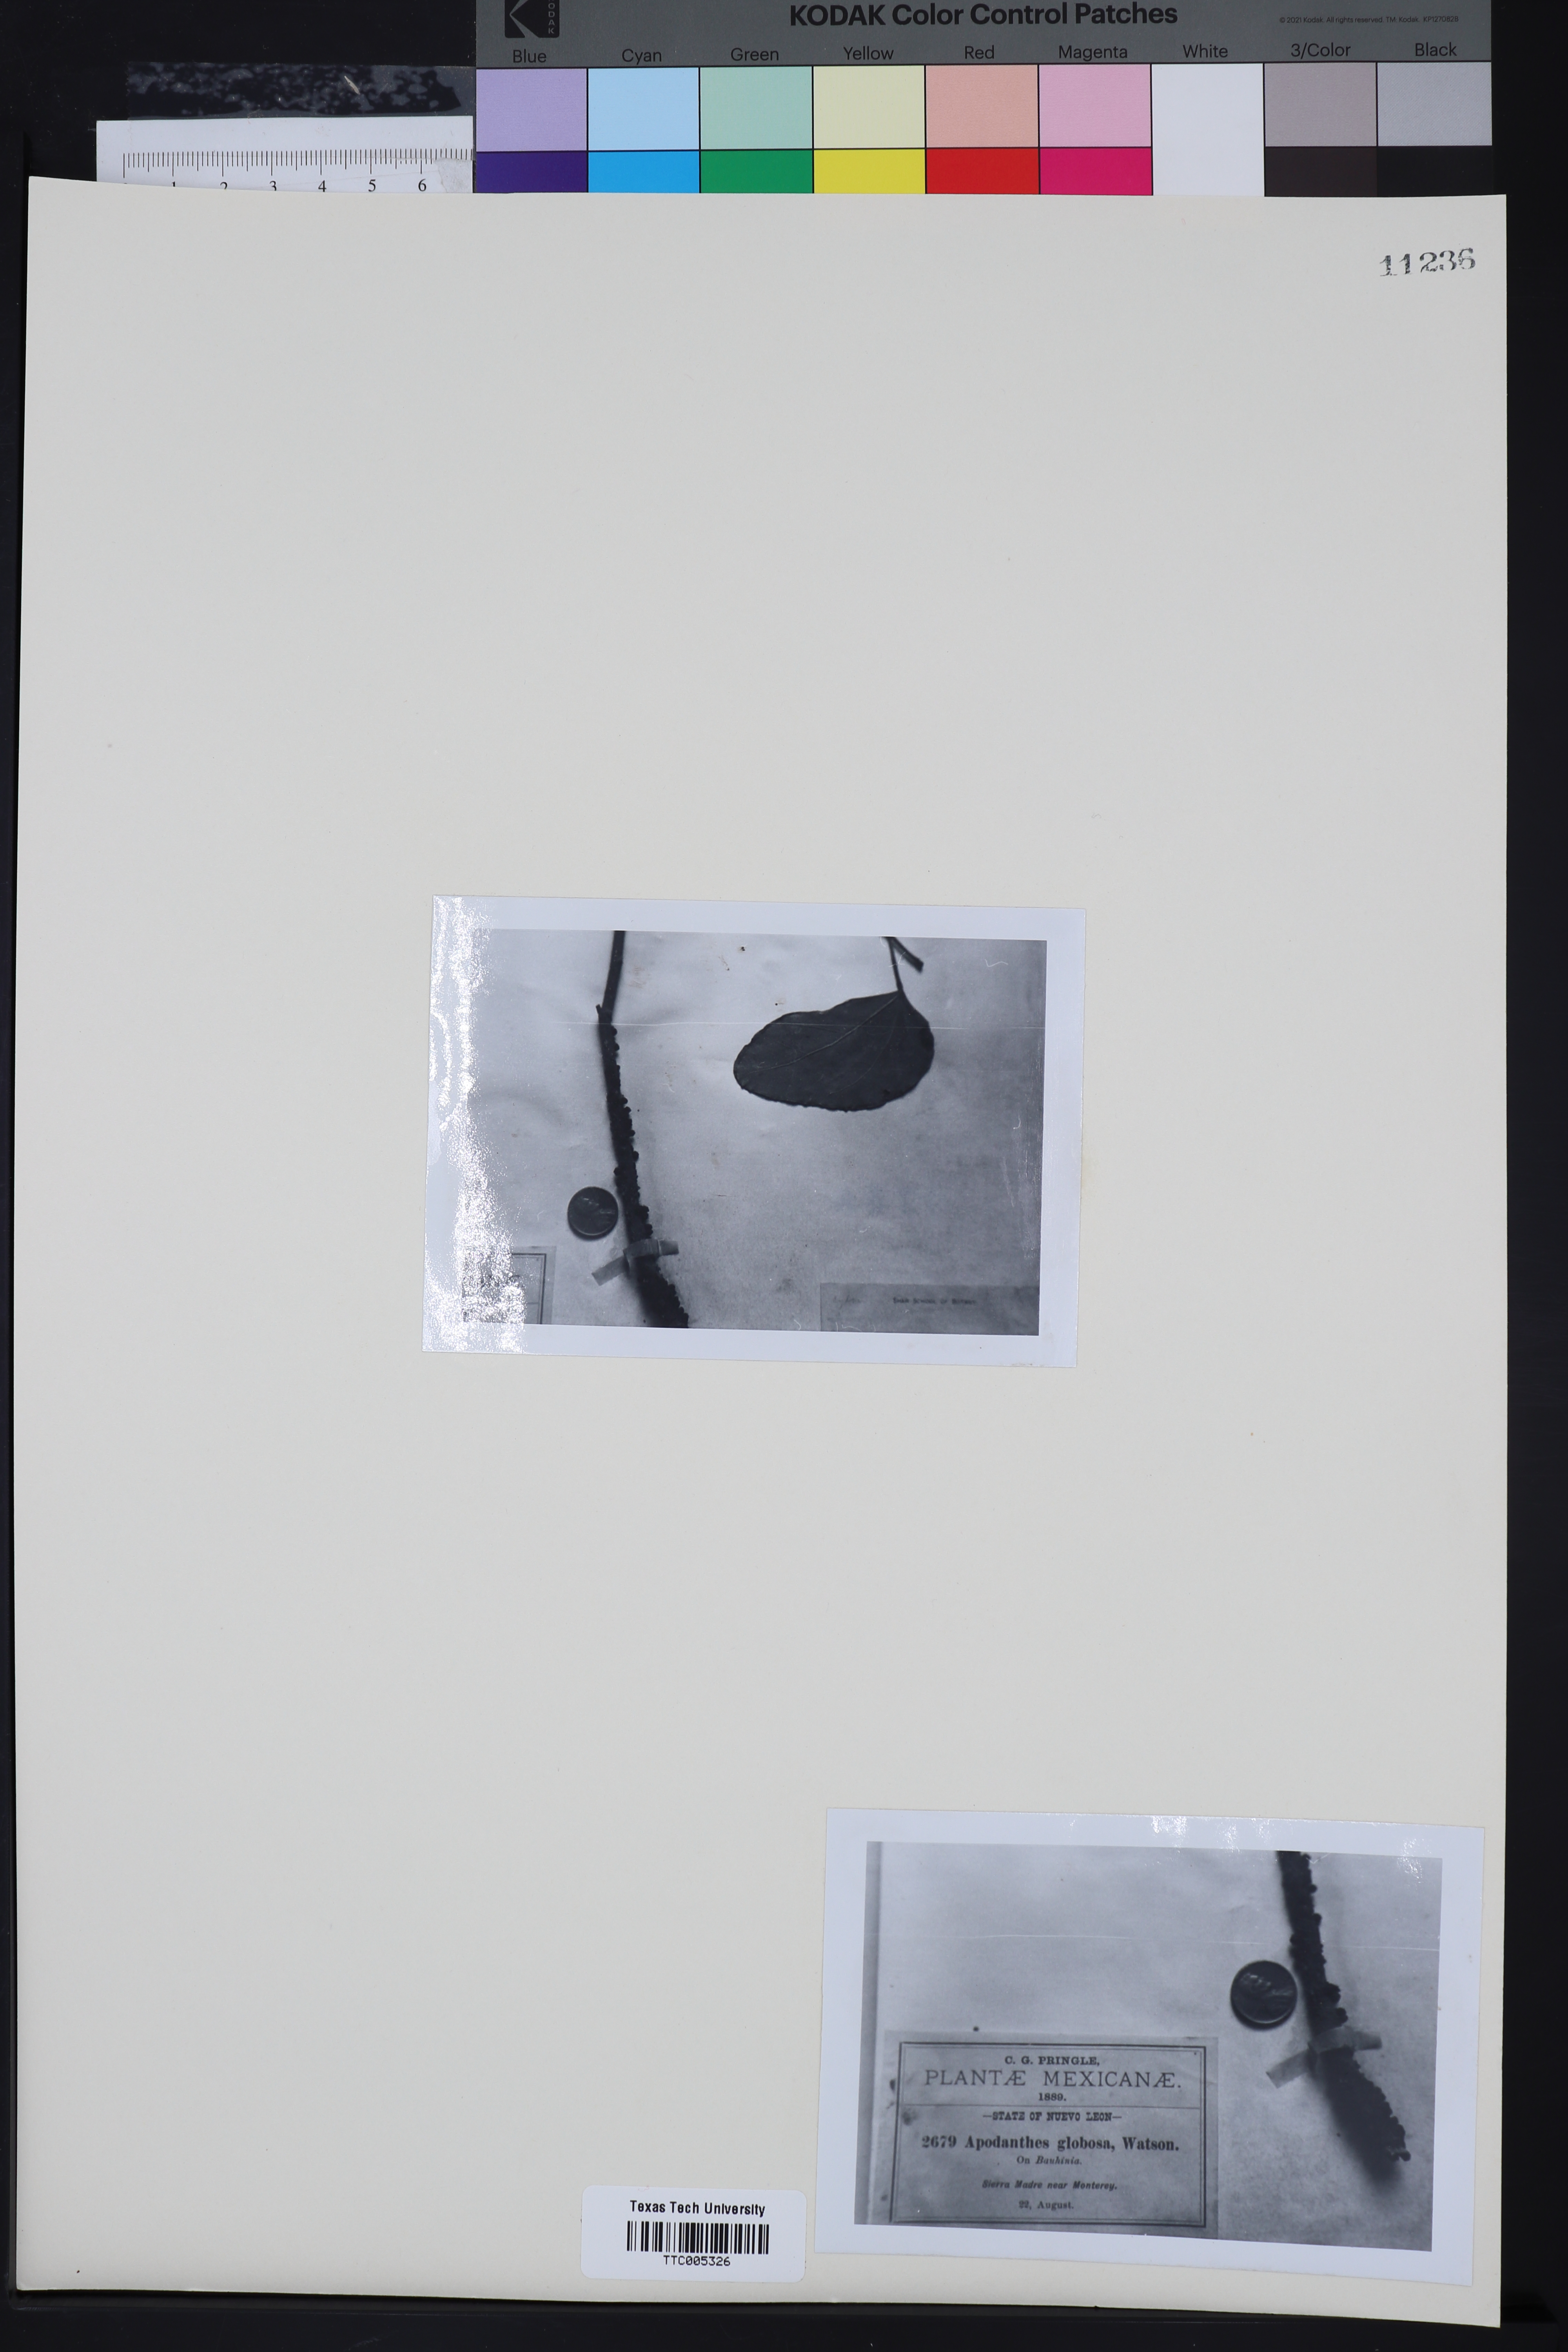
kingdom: Plantae
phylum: Tracheophyta
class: Magnoliopsida
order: Cucurbitales
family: Apodanthaceae
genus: Pilostyles
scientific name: Pilostyles blanchetii
